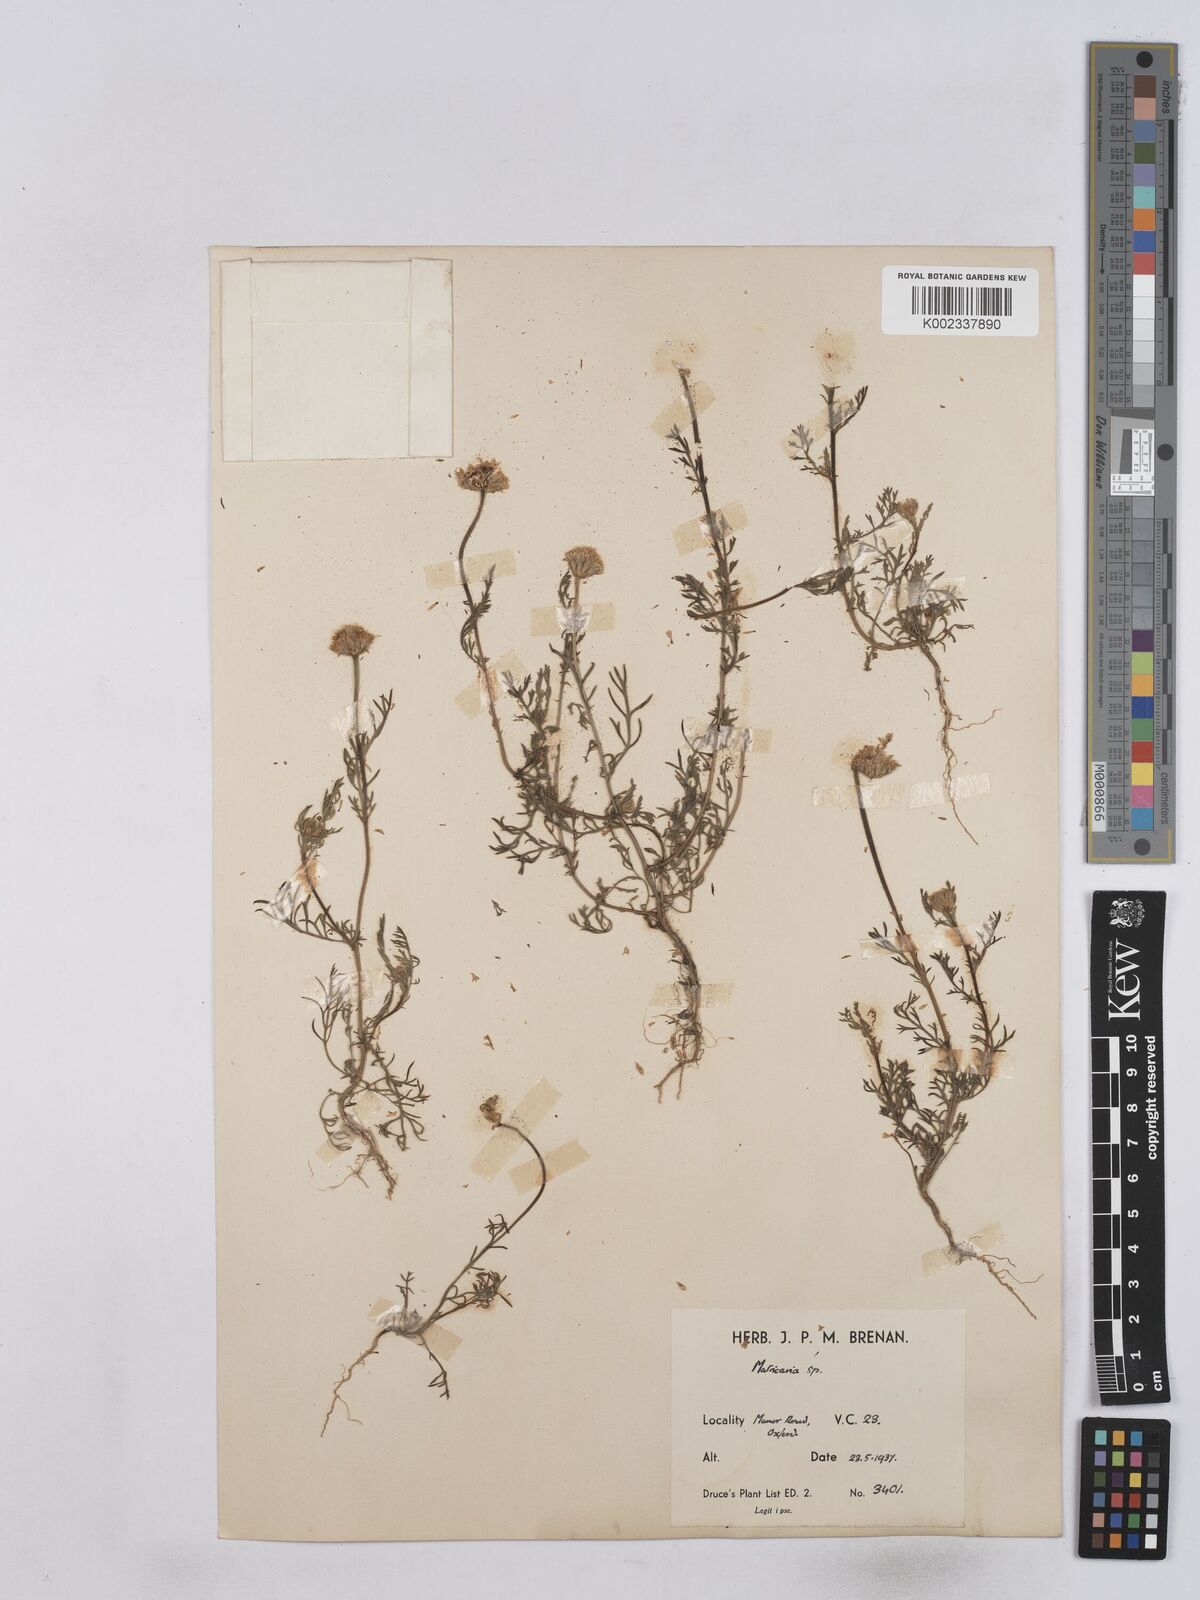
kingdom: Plantae
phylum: Tracheophyta
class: Magnoliopsida
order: Asterales
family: Asteraceae
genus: Matricaria
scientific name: Matricaria discoidea
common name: Disc mayweed
